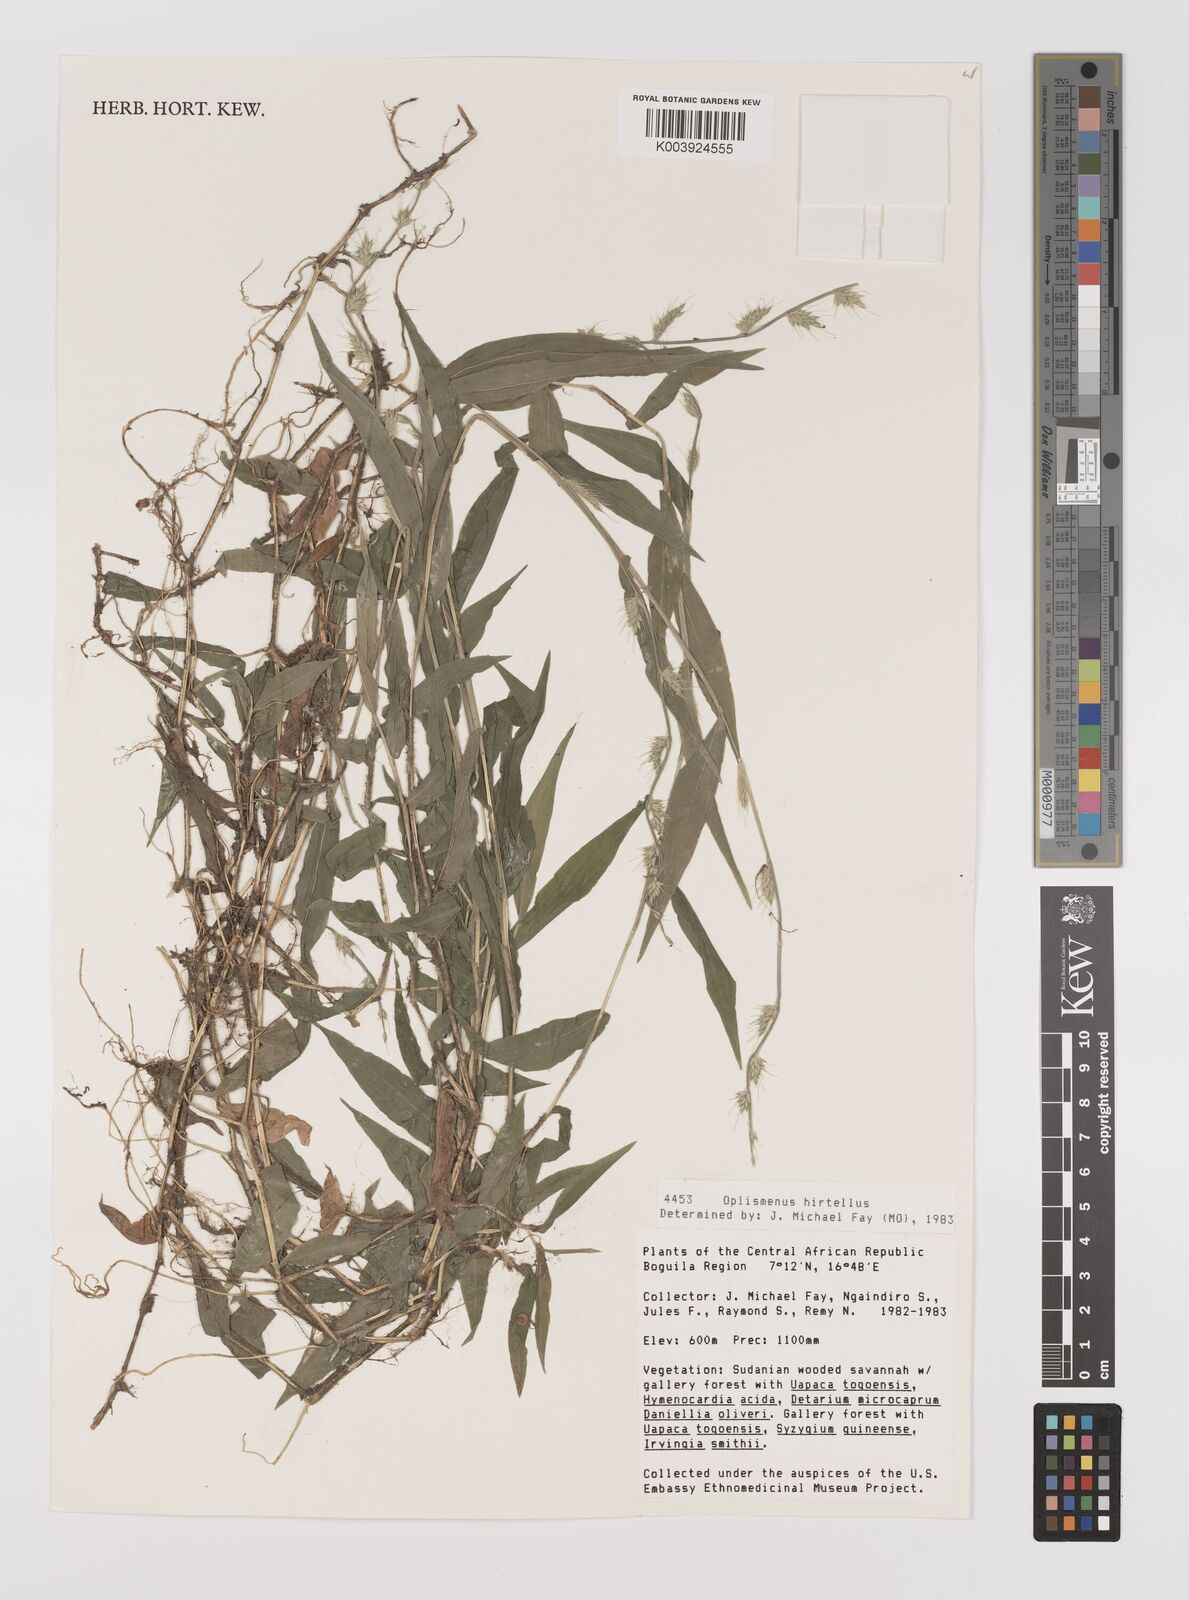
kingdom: Plantae
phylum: Tracheophyta
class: Liliopsida
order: Poales
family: Poaceae
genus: Oplismenus
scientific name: Oplismenus hirtellus
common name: Basketgrass
